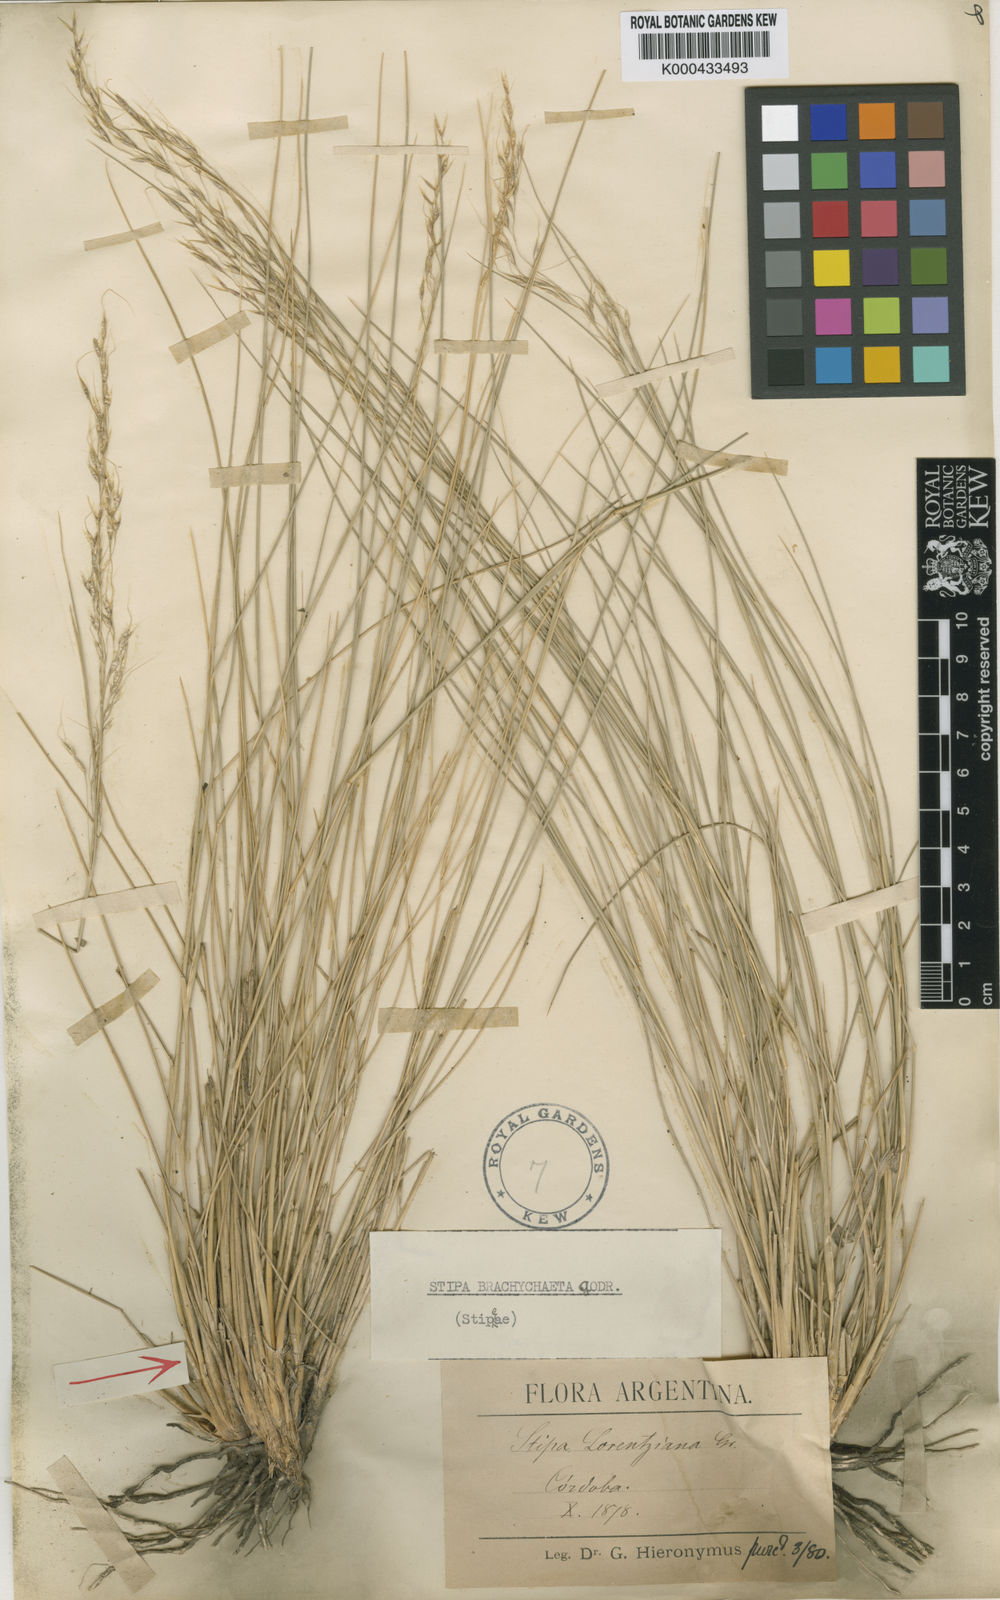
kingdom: Plantae
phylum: Tracheophyta
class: Liliopsida
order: Poales
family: Poaceae
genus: Amelichloa
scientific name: Amelichloa brachychaeta
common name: Shortbristled needlegrass
